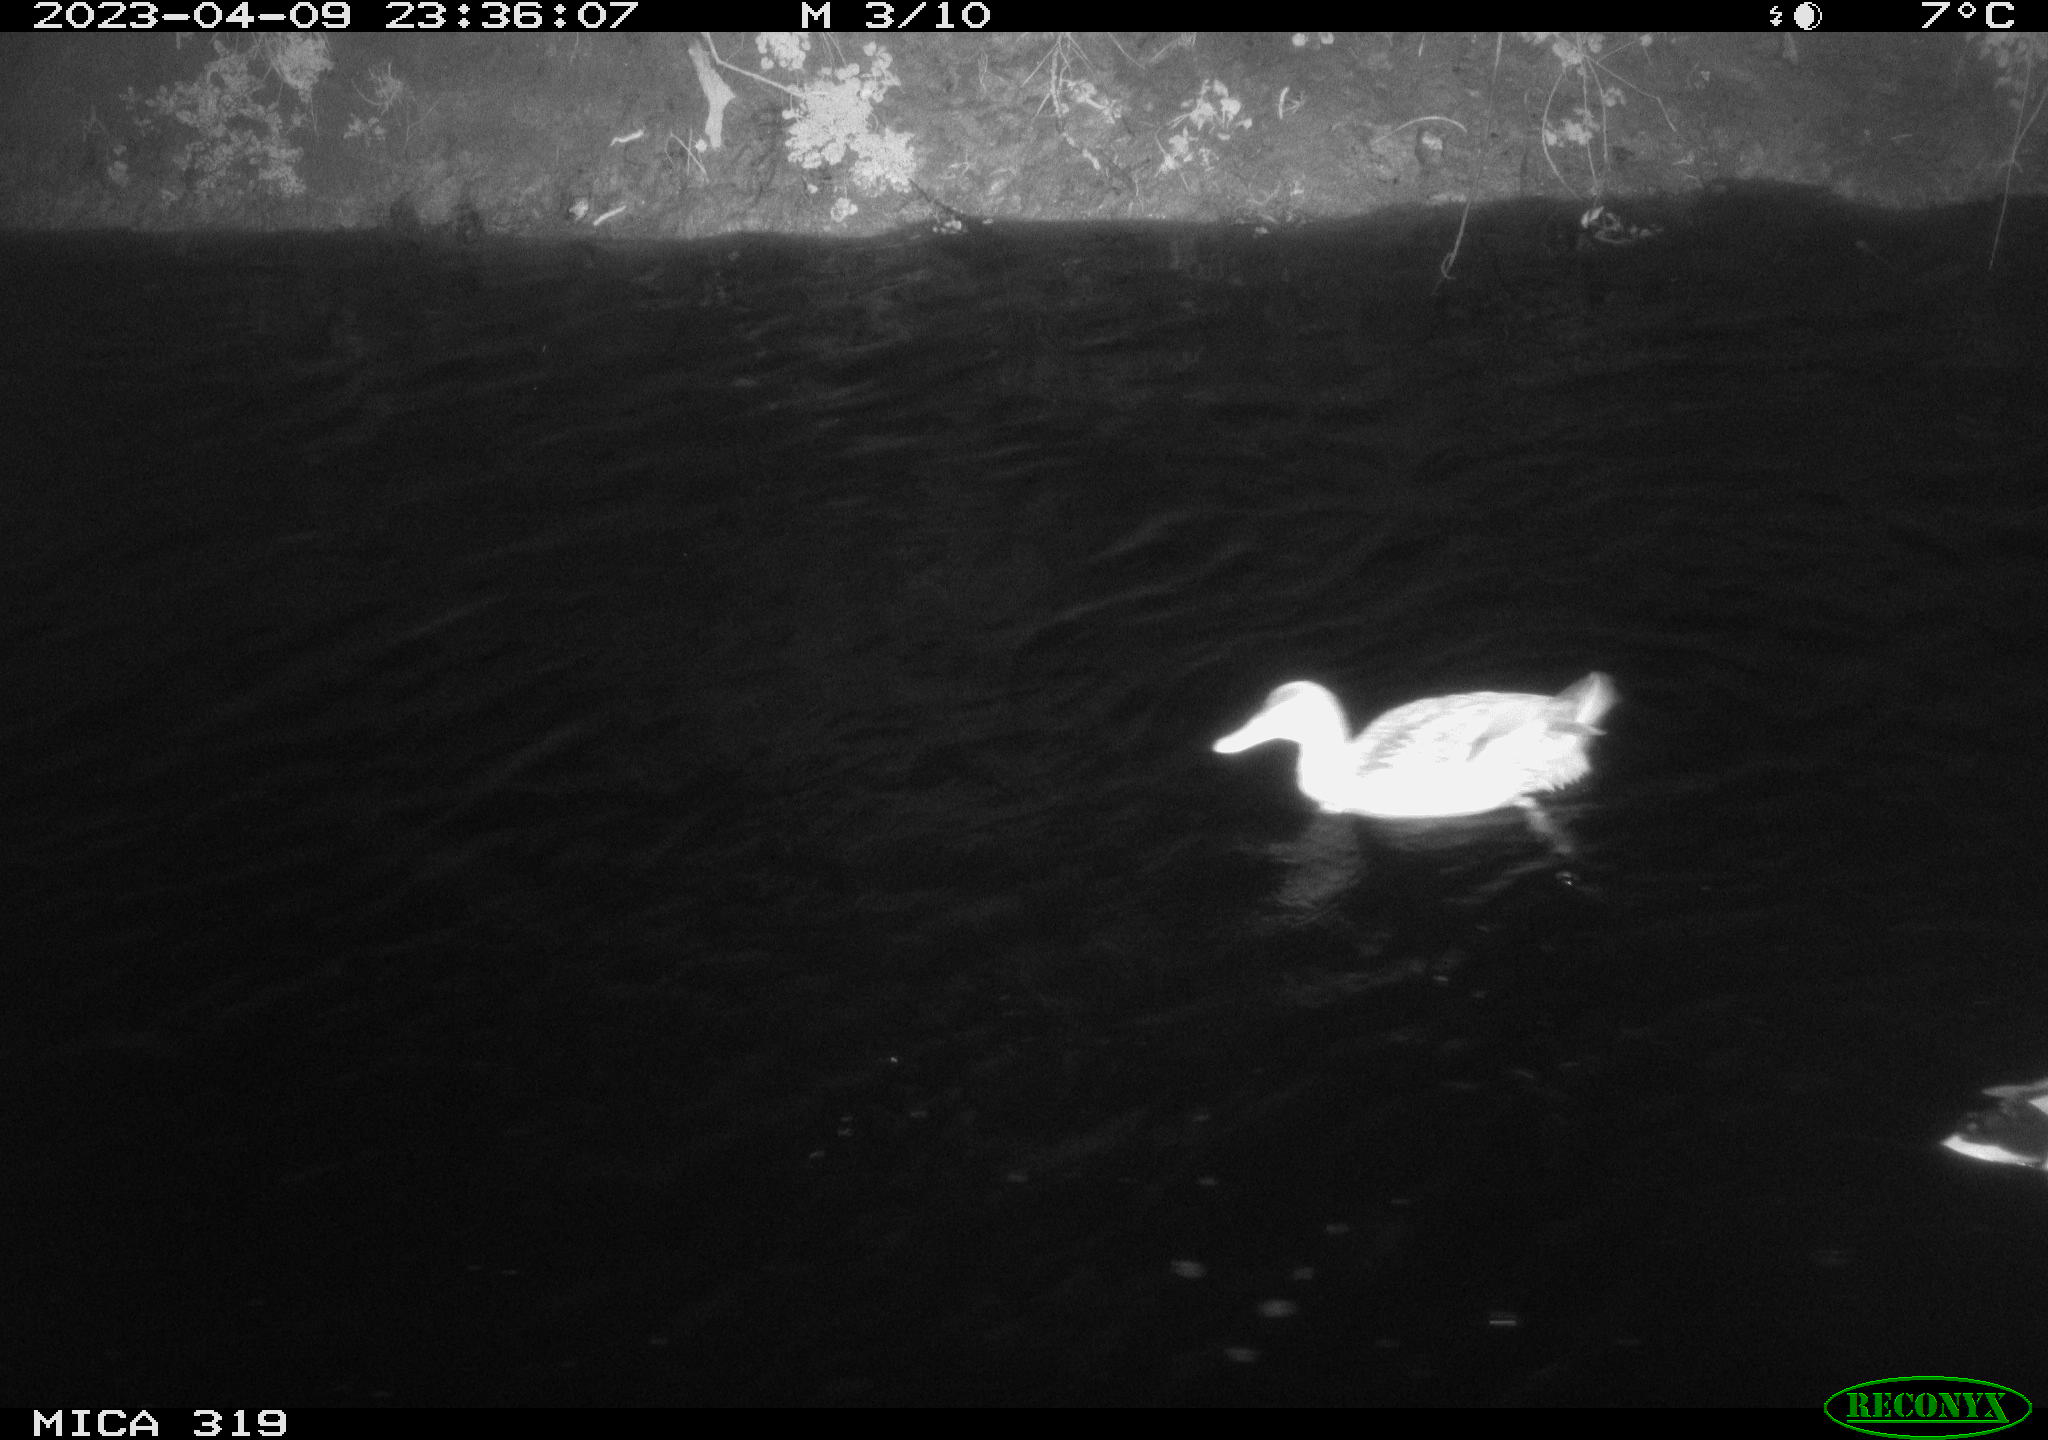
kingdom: Animalia
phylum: Chordata
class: Aves
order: Anseriformes
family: Anatidae
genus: Anas
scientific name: Anas
